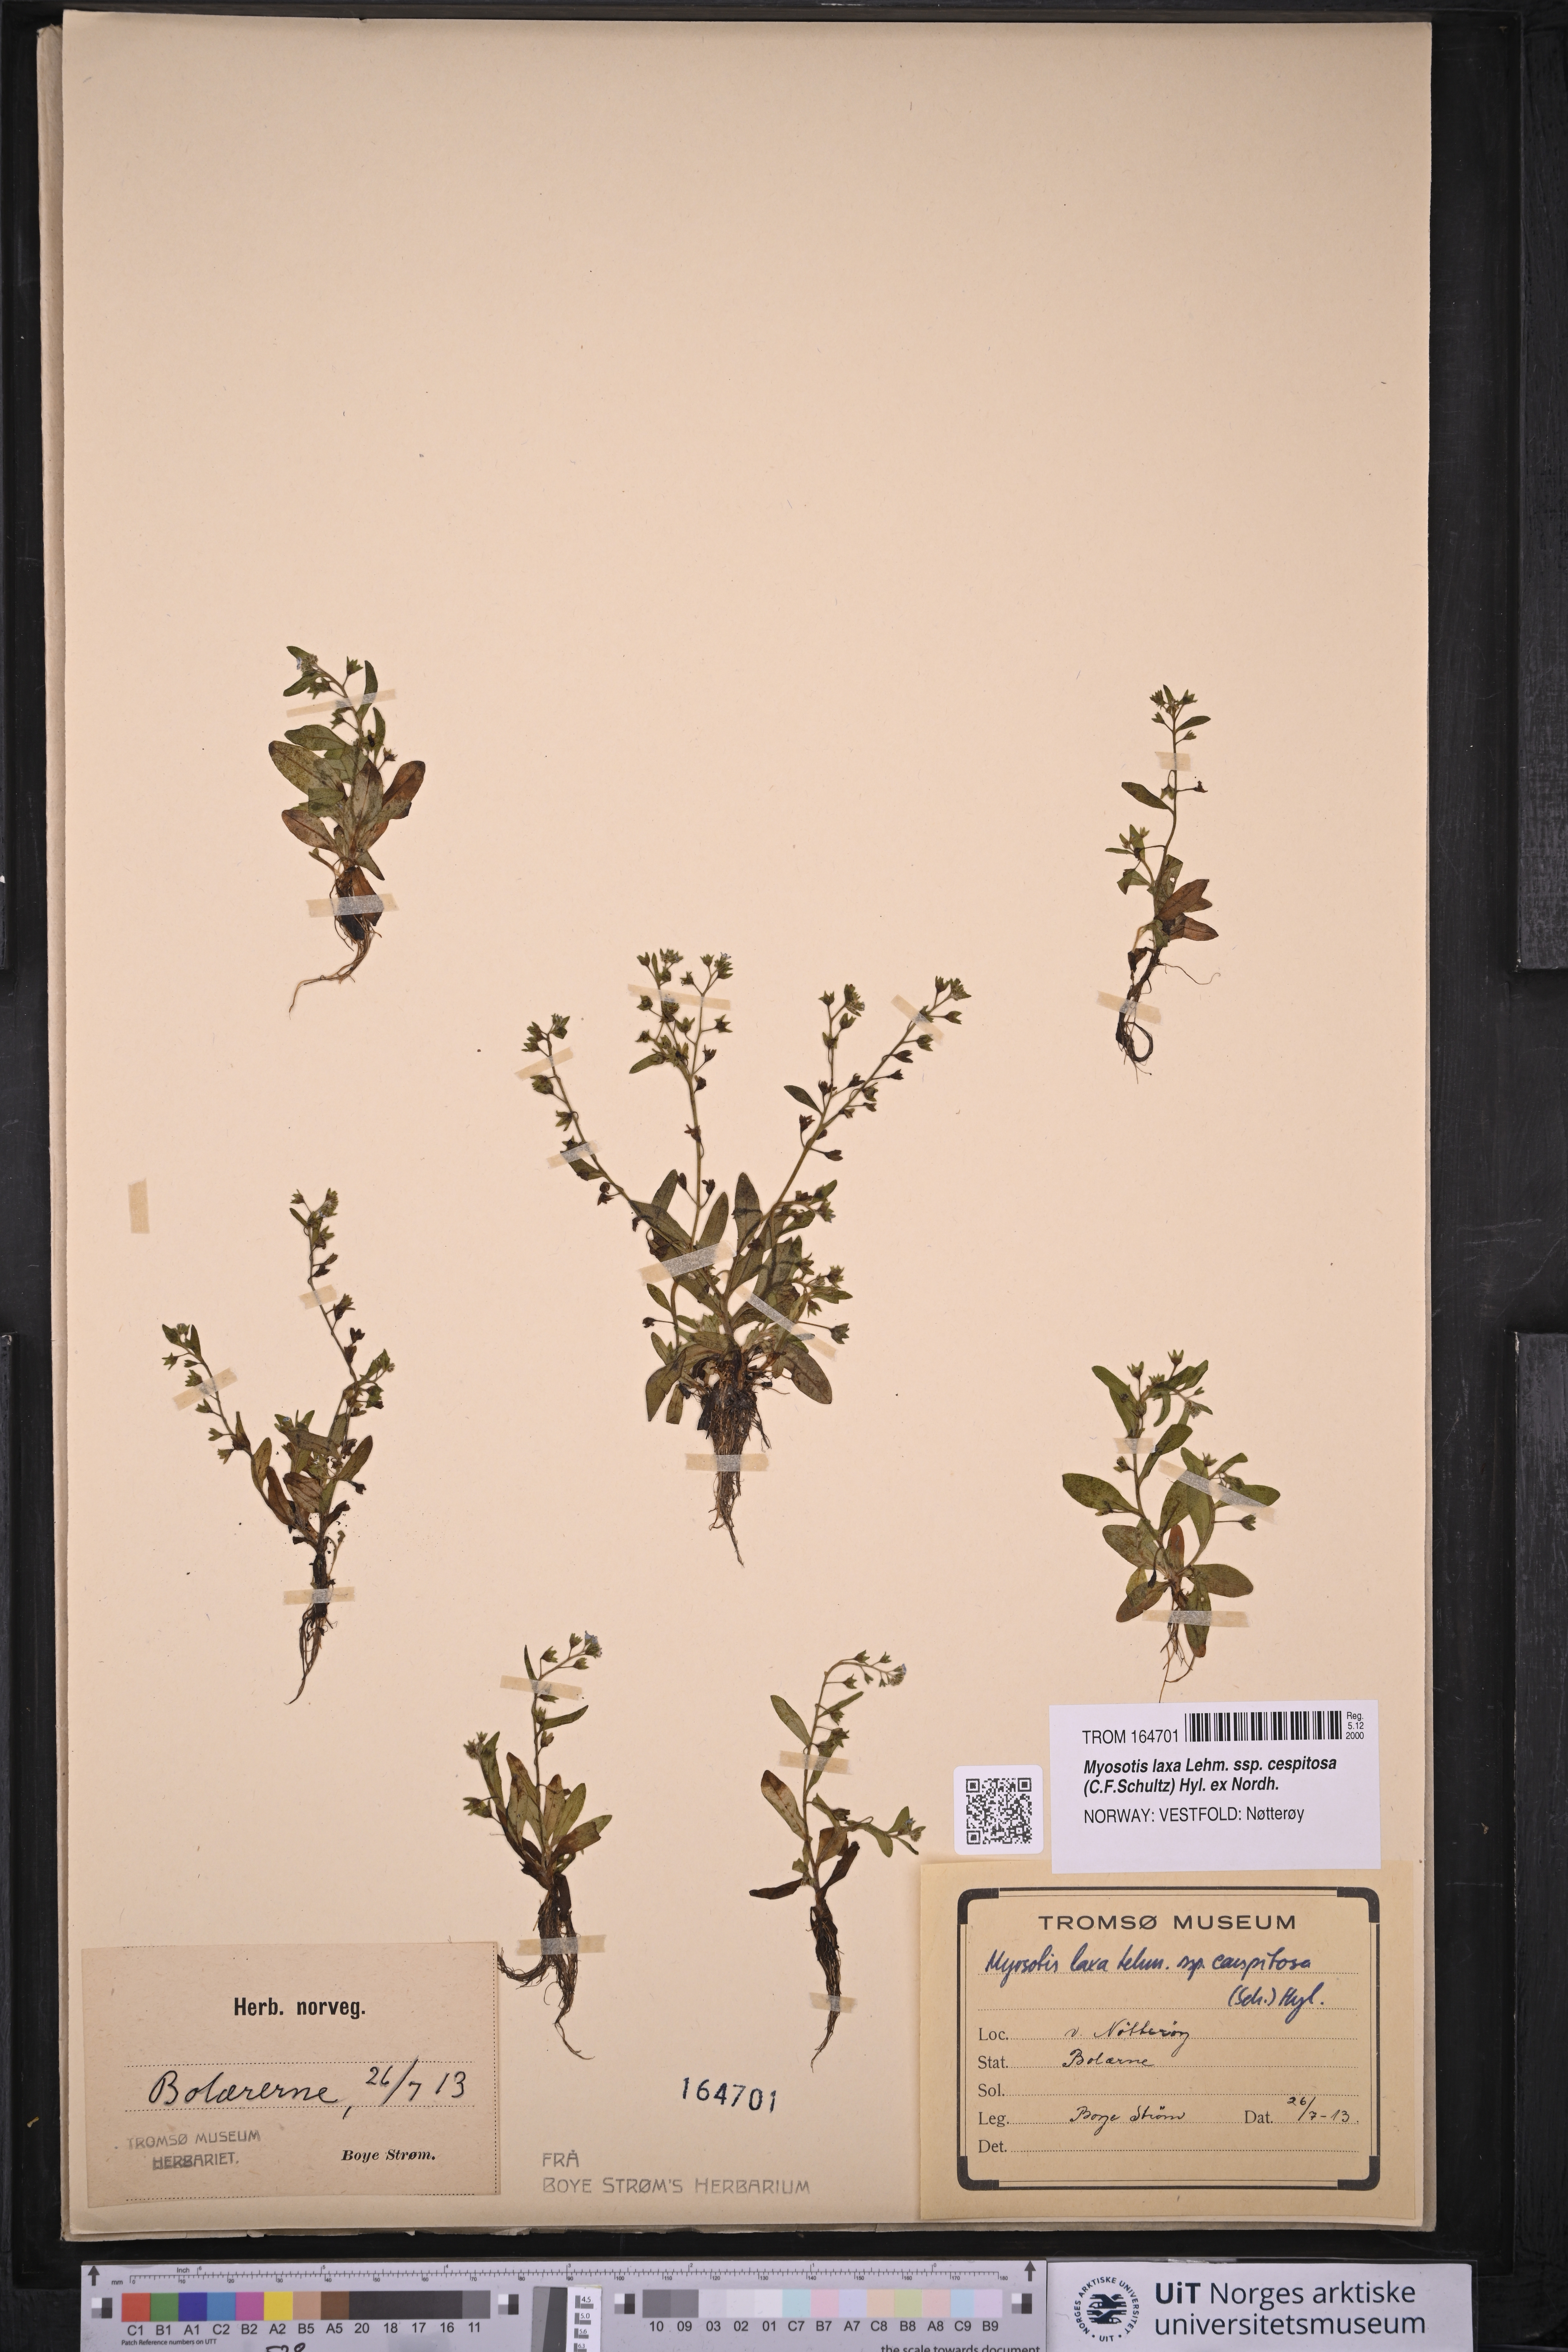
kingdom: Plantae
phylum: Tracheophyta
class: Magnoliopsida
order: Boraginales
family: Boraginaceae
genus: Myosotis
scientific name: Myosotis laxa
